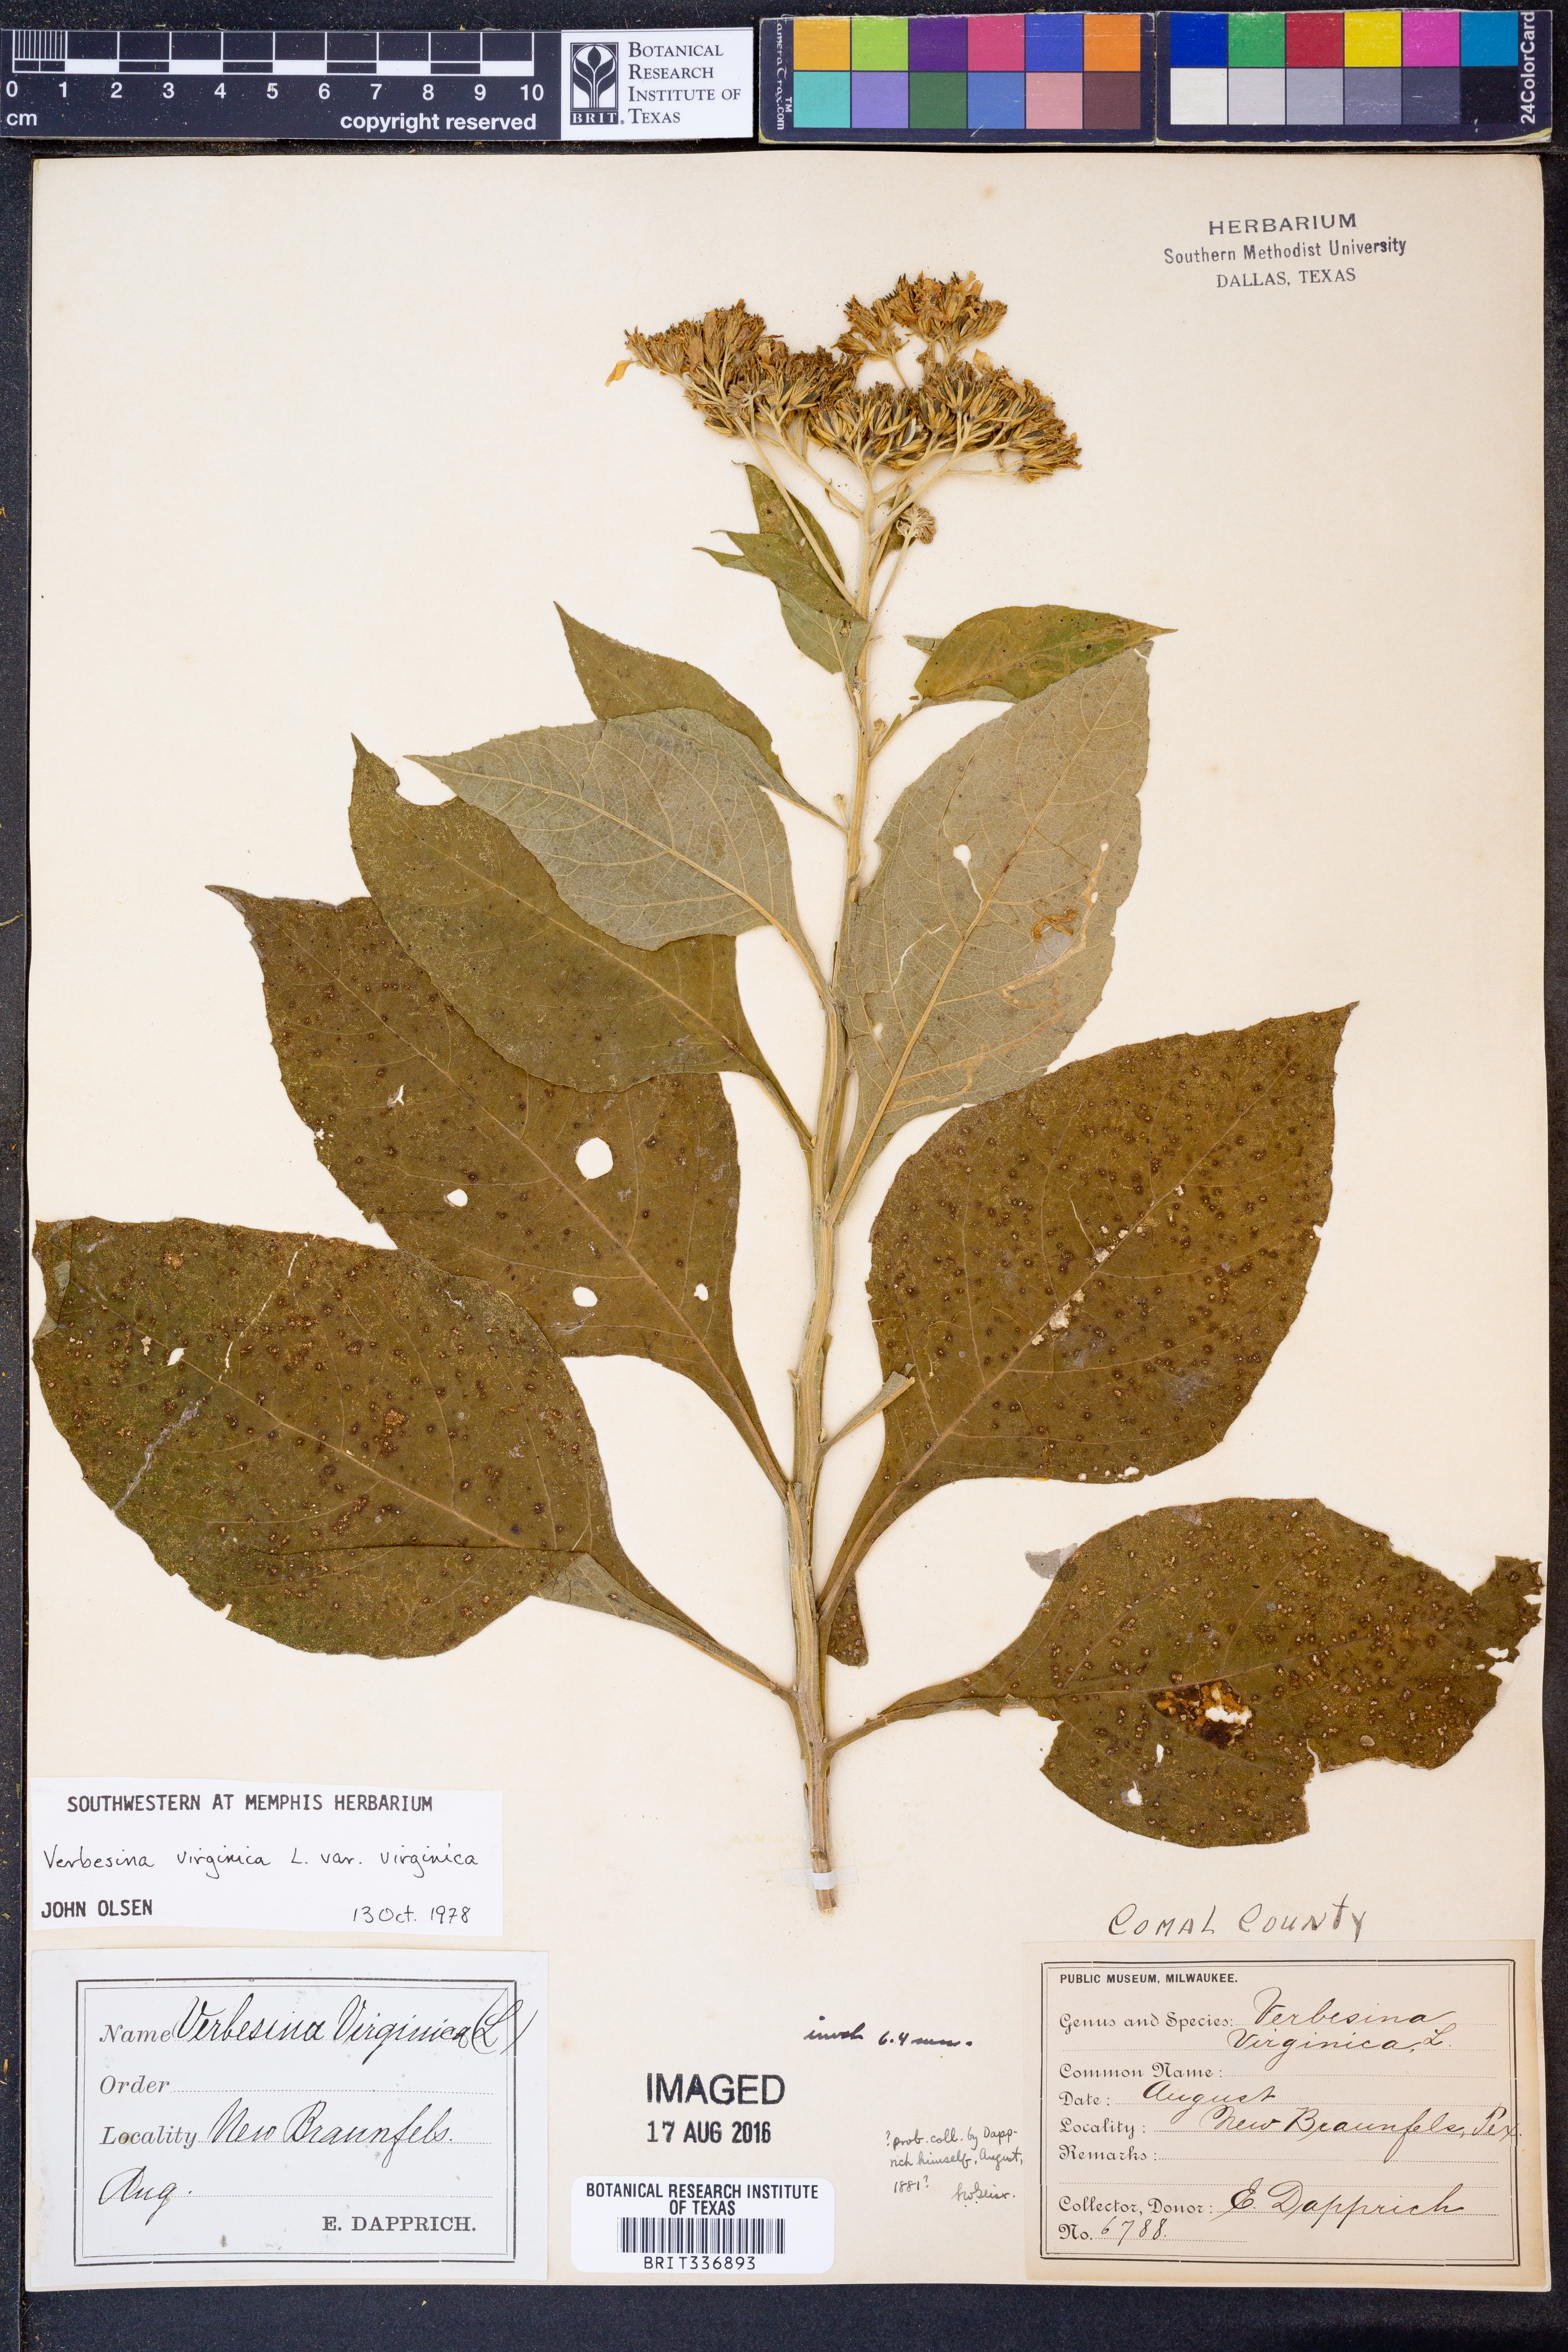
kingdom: Plantae
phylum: Tracheophyta
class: Magnoliopsida
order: Asterales
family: Asteraceae
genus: Verbesina
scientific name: Verbesina virginica
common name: Frostweed
